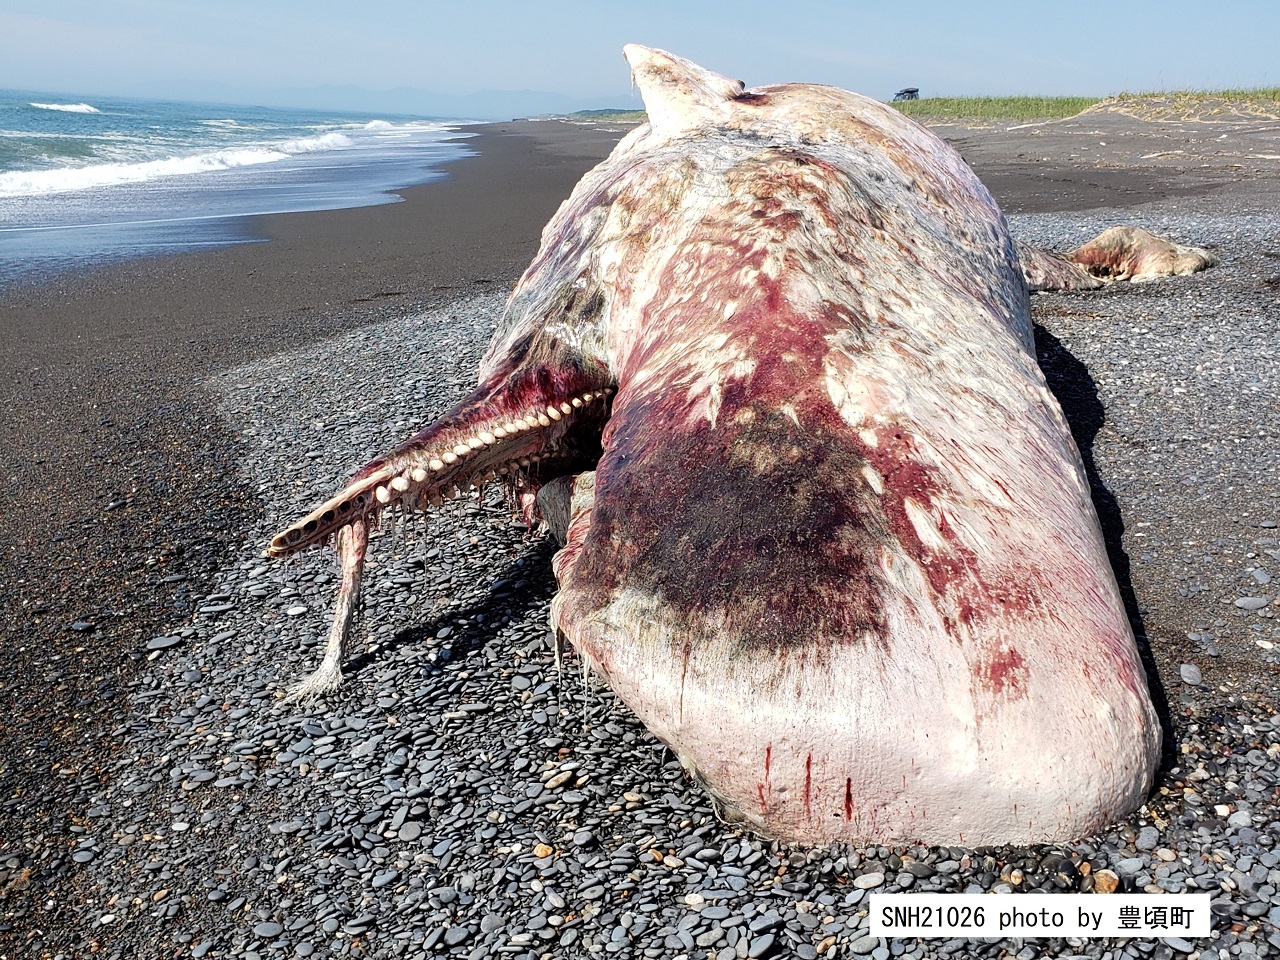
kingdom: Animalia
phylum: Chordata
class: Mammalia
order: Cetacea
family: Physeteridae
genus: Physeter
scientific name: Physeter macrocephalus
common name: Sperm whale
